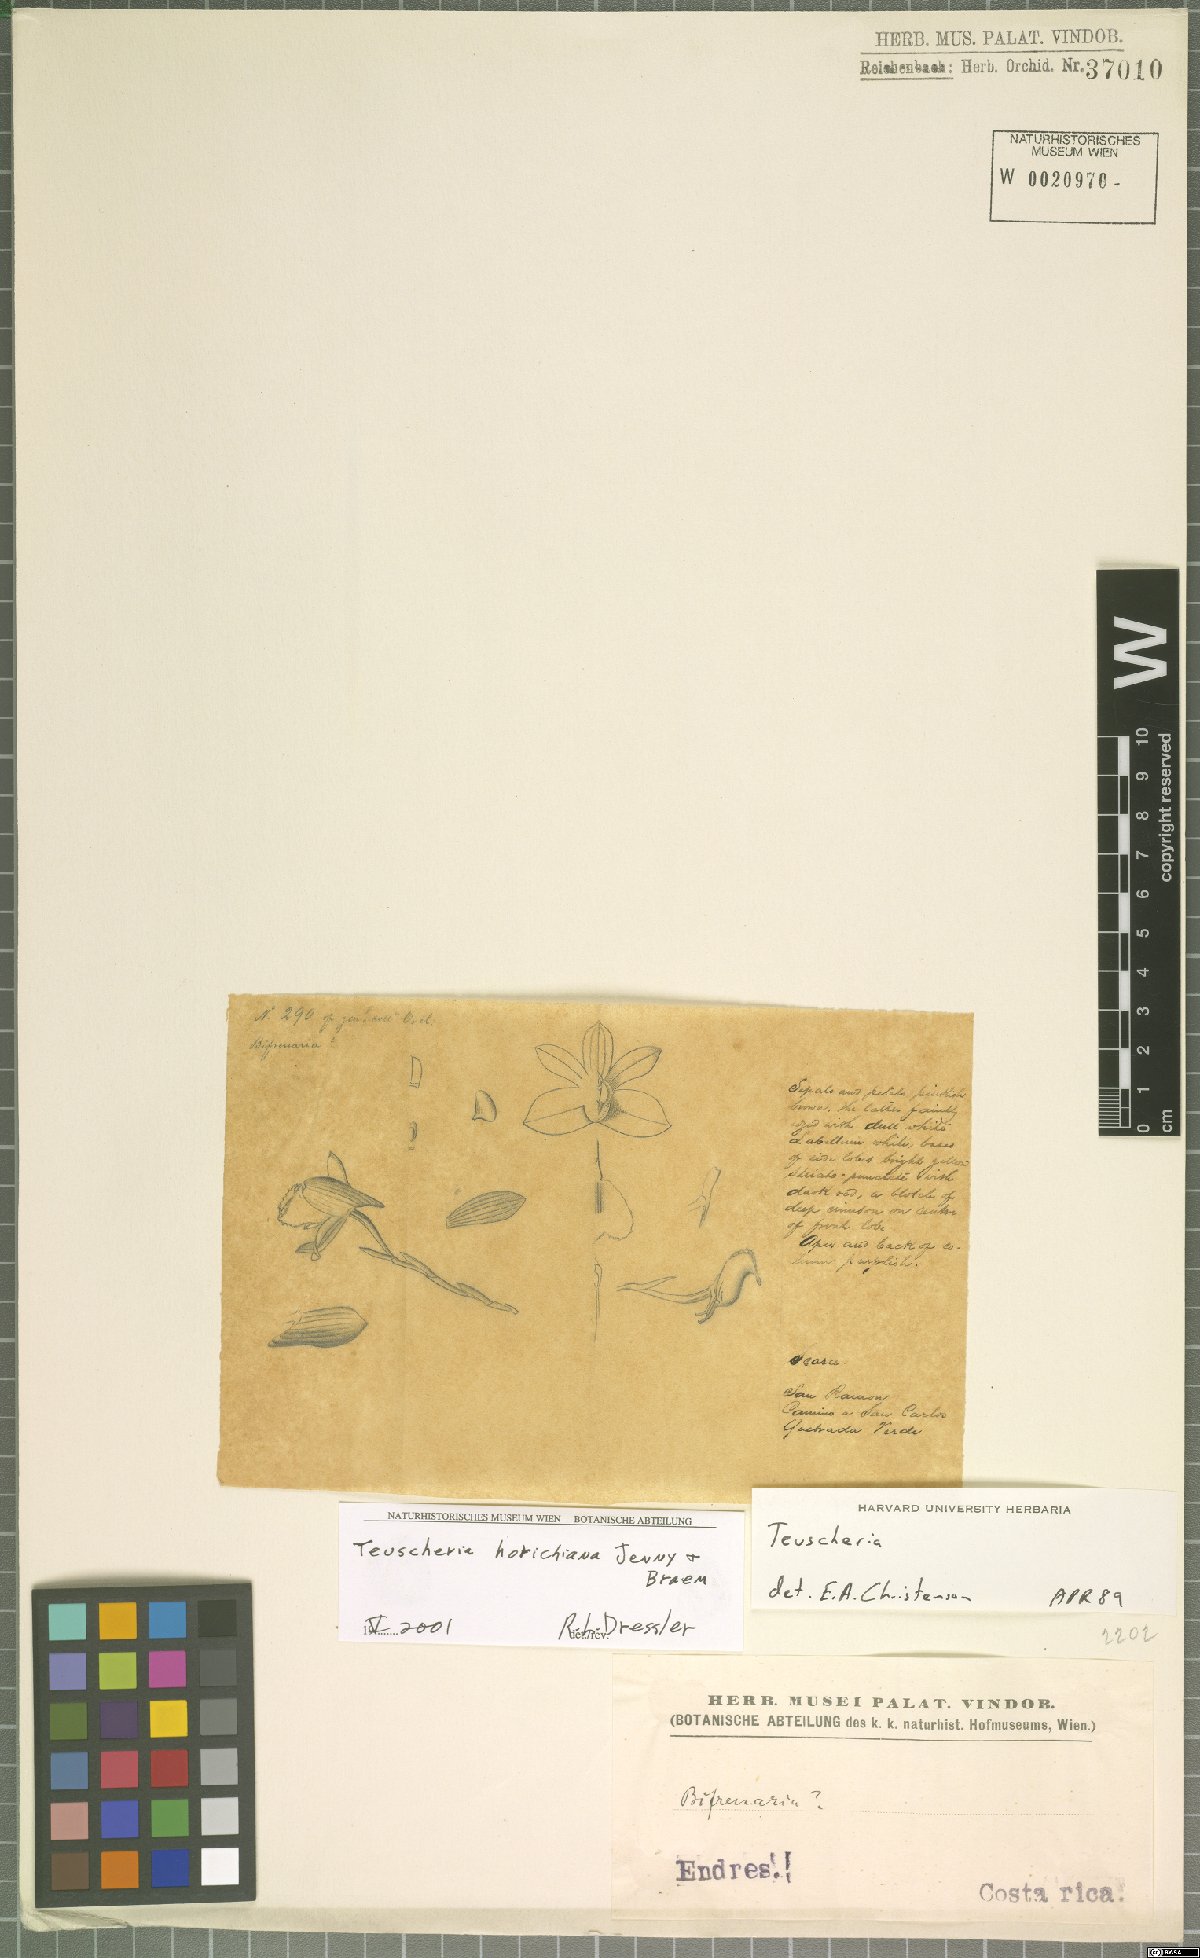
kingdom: Plantae
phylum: Tracheophyta
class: Liliopsida
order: Asparagales
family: Orchidaceae
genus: Dendrobium
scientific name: Dendrobium findleyanum
